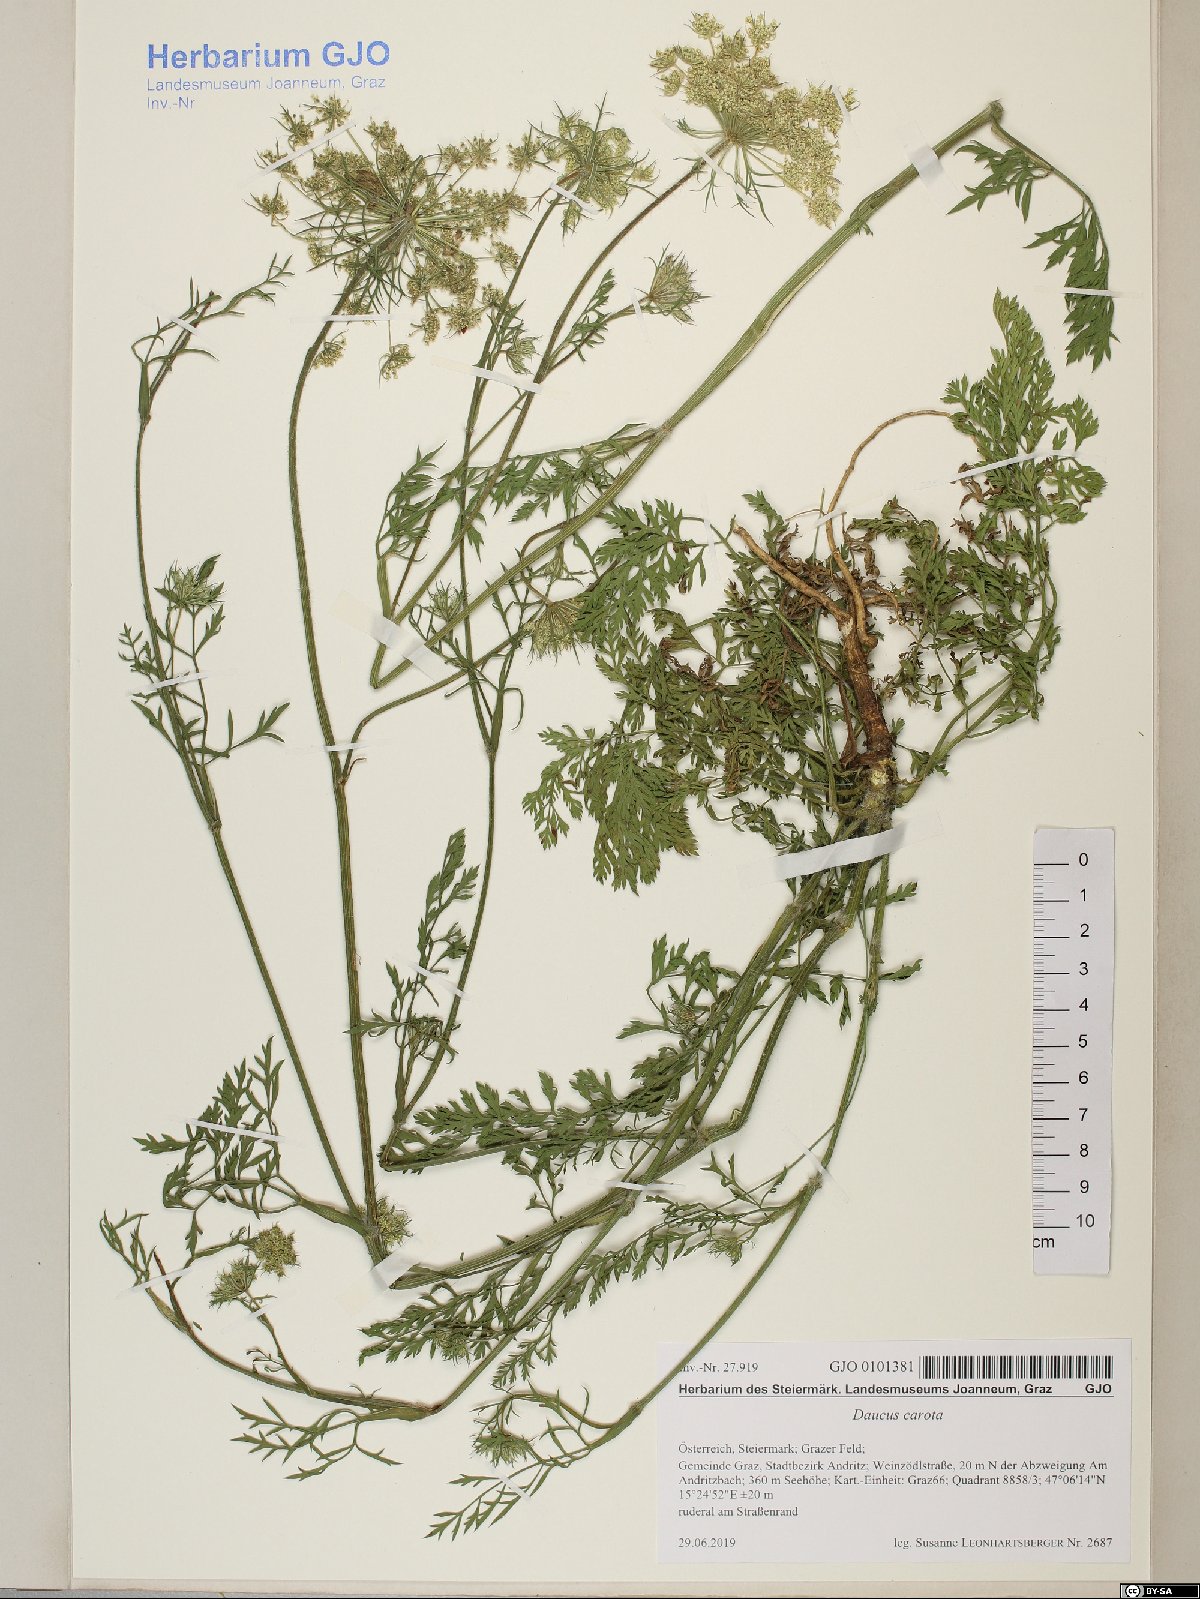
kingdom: Plantae
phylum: Tracheophyta
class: Magnoliopsida
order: Apiales
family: Apiaceae
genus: Daucus
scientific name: Daucus carota
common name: Wild carrot
